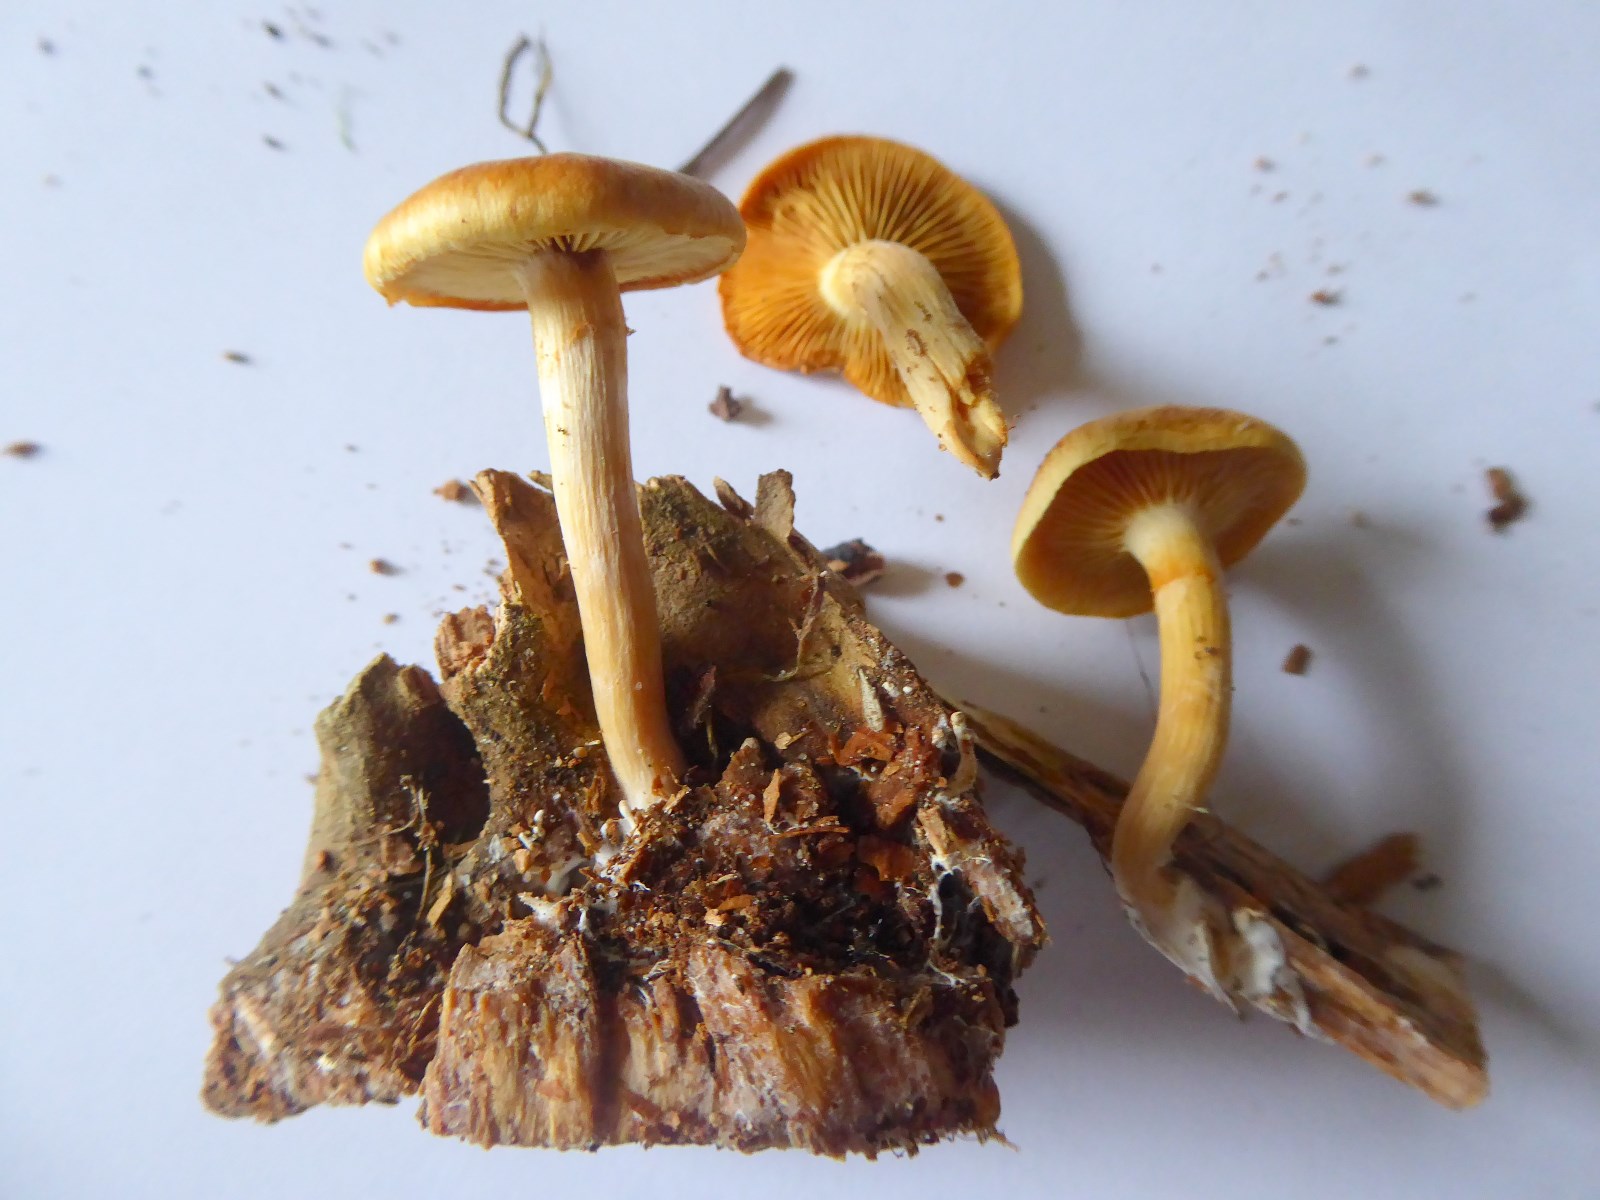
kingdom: Fungi
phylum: Basidiomycota
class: Agaricomycetes
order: Agaricales
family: Hymenogastraceae
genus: Gymnopilus
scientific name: Gymnopilus penetrans
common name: plettet flammehat
